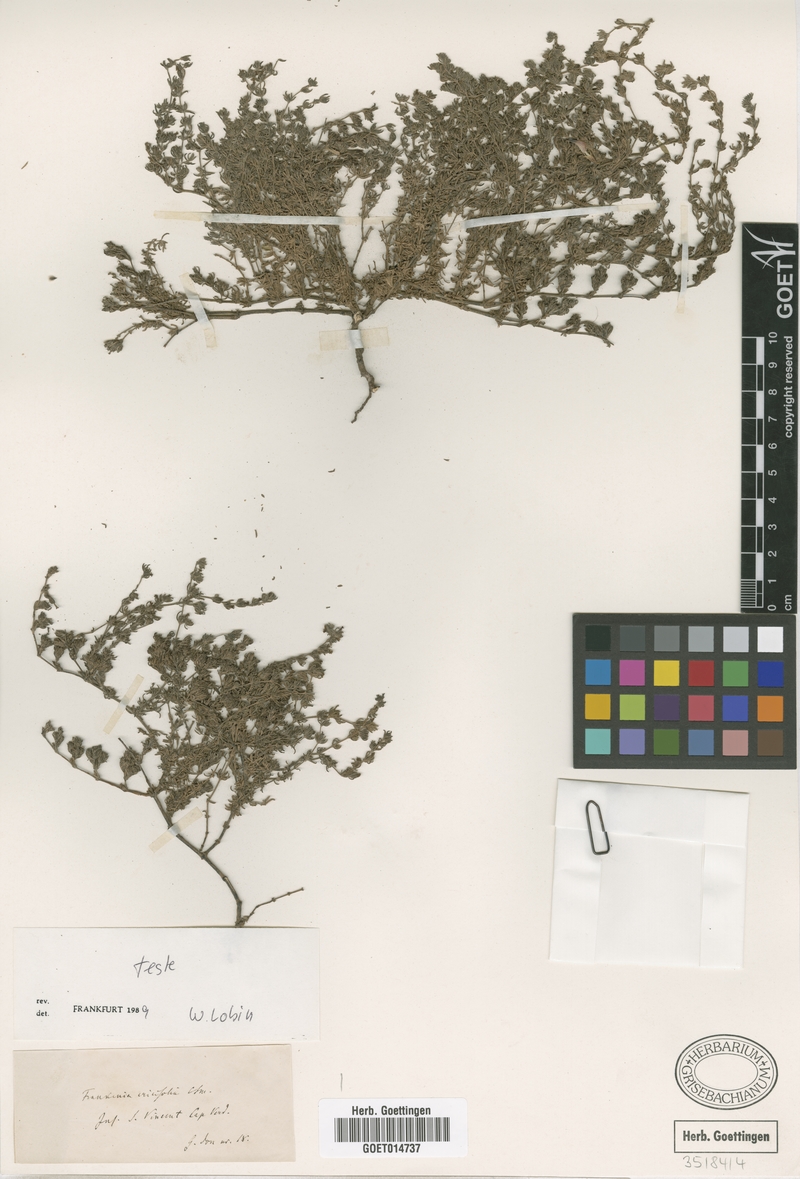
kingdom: Plantae
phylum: Tracheophyta
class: Magnoliopsida
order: Caryophyllales
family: Frankeniaceae
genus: Frankenia
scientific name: Frankenia ericifolia
